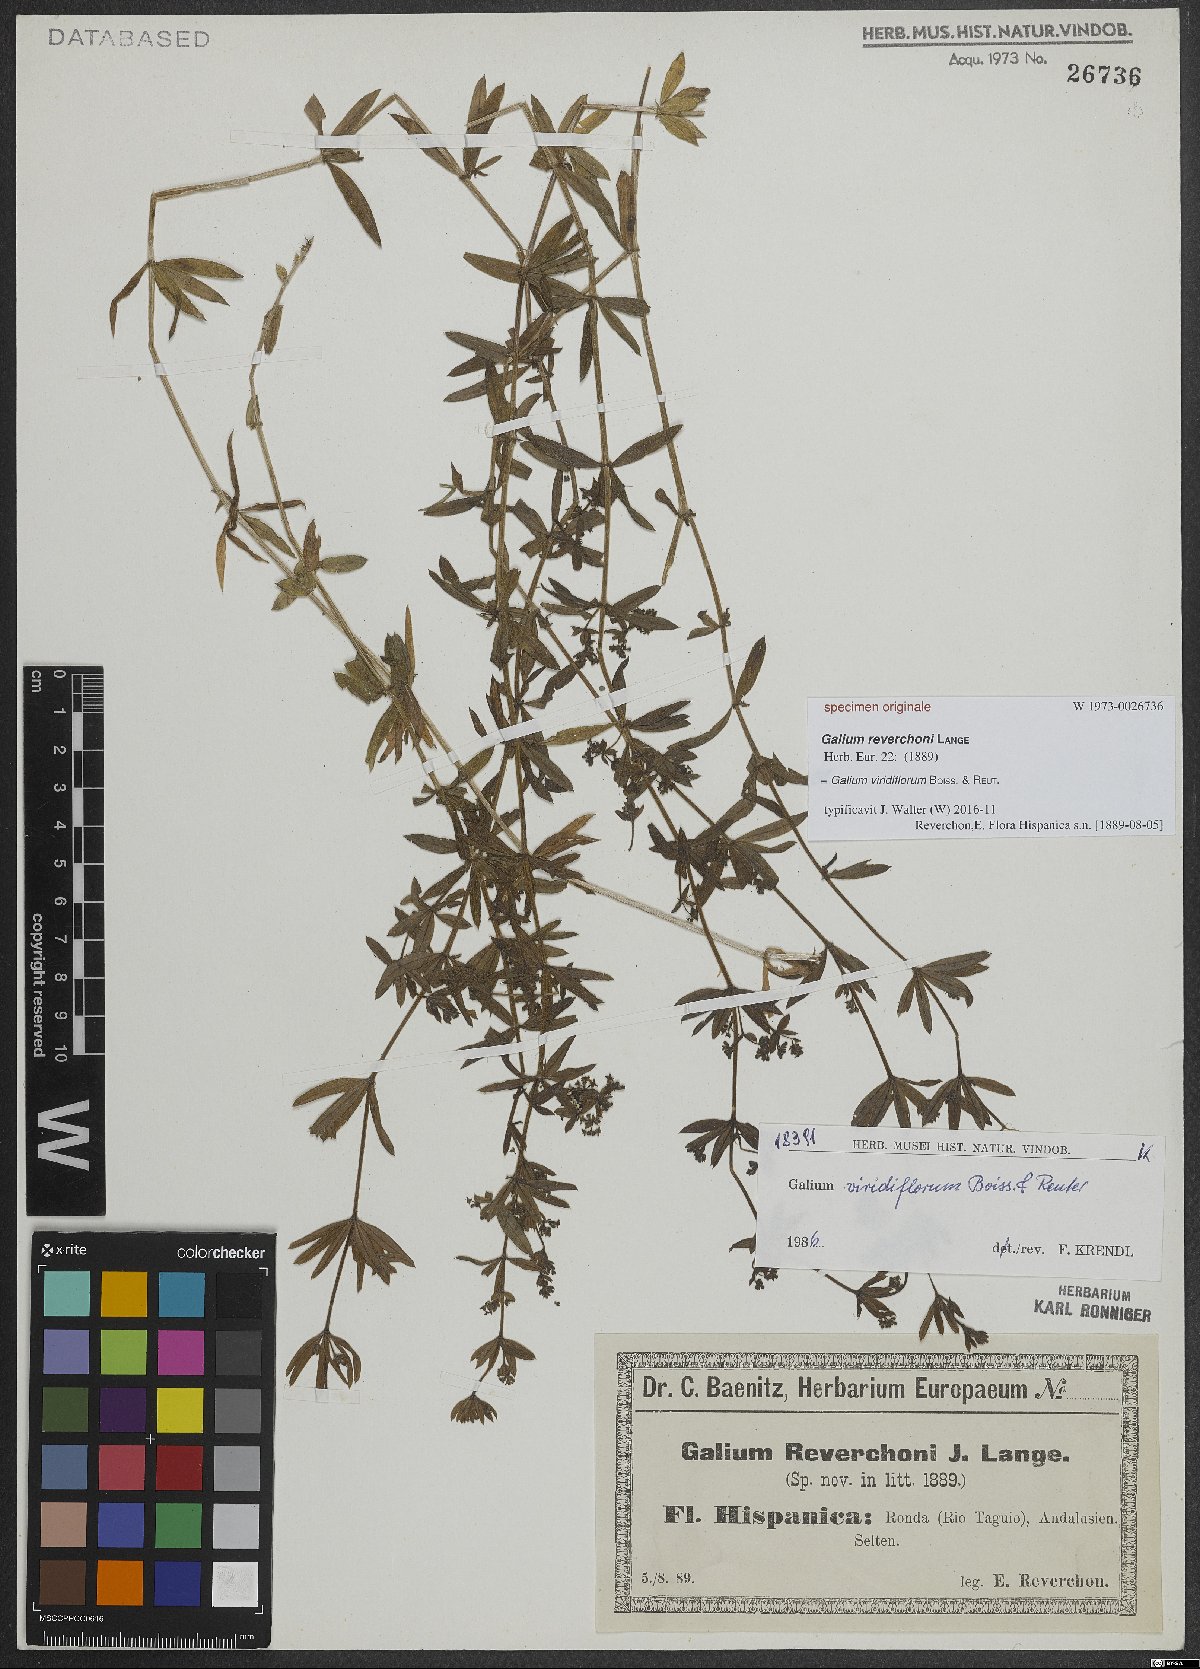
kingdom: Plantae
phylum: Tracheophyta
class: Magnoliopsida
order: Gentianales
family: Rubiaceae
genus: Galium
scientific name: Galium viridiflorum
